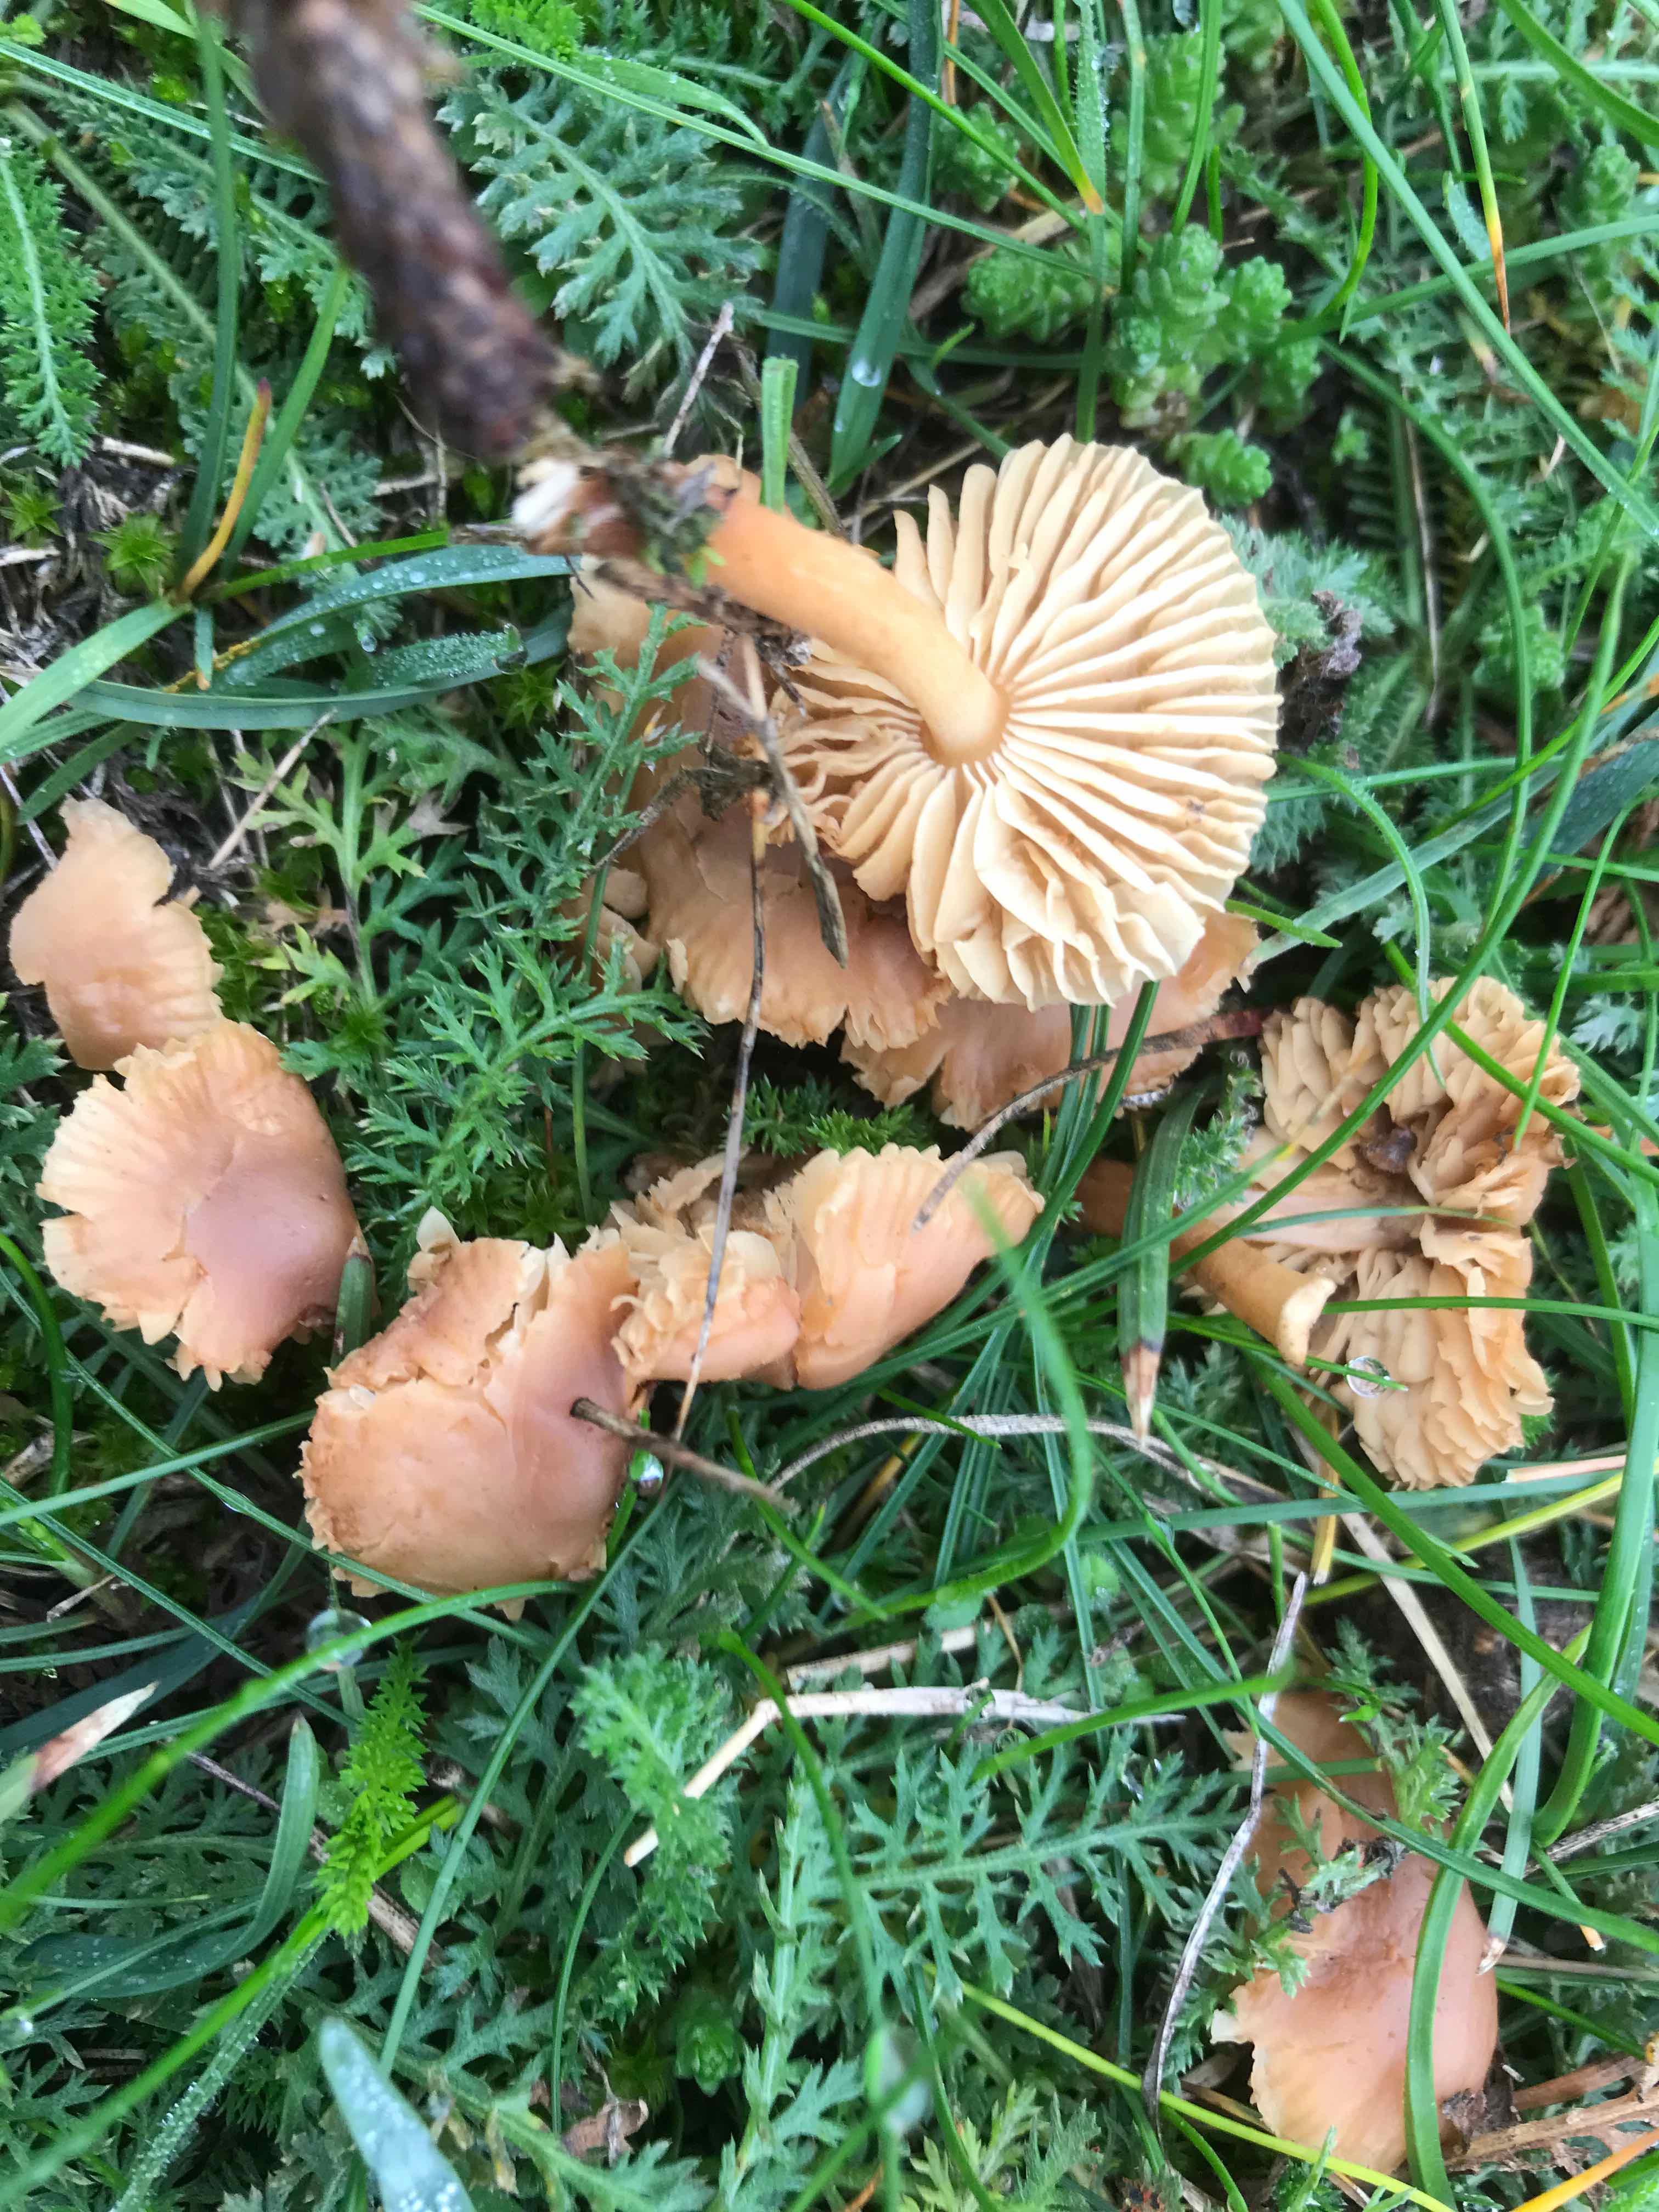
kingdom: Fungi
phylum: Basidiomycota
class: Agaricomycetes
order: Agaricales
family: Marasmiaceae
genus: Marasmius
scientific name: Marasmius oreades
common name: elledans-bruskhat
